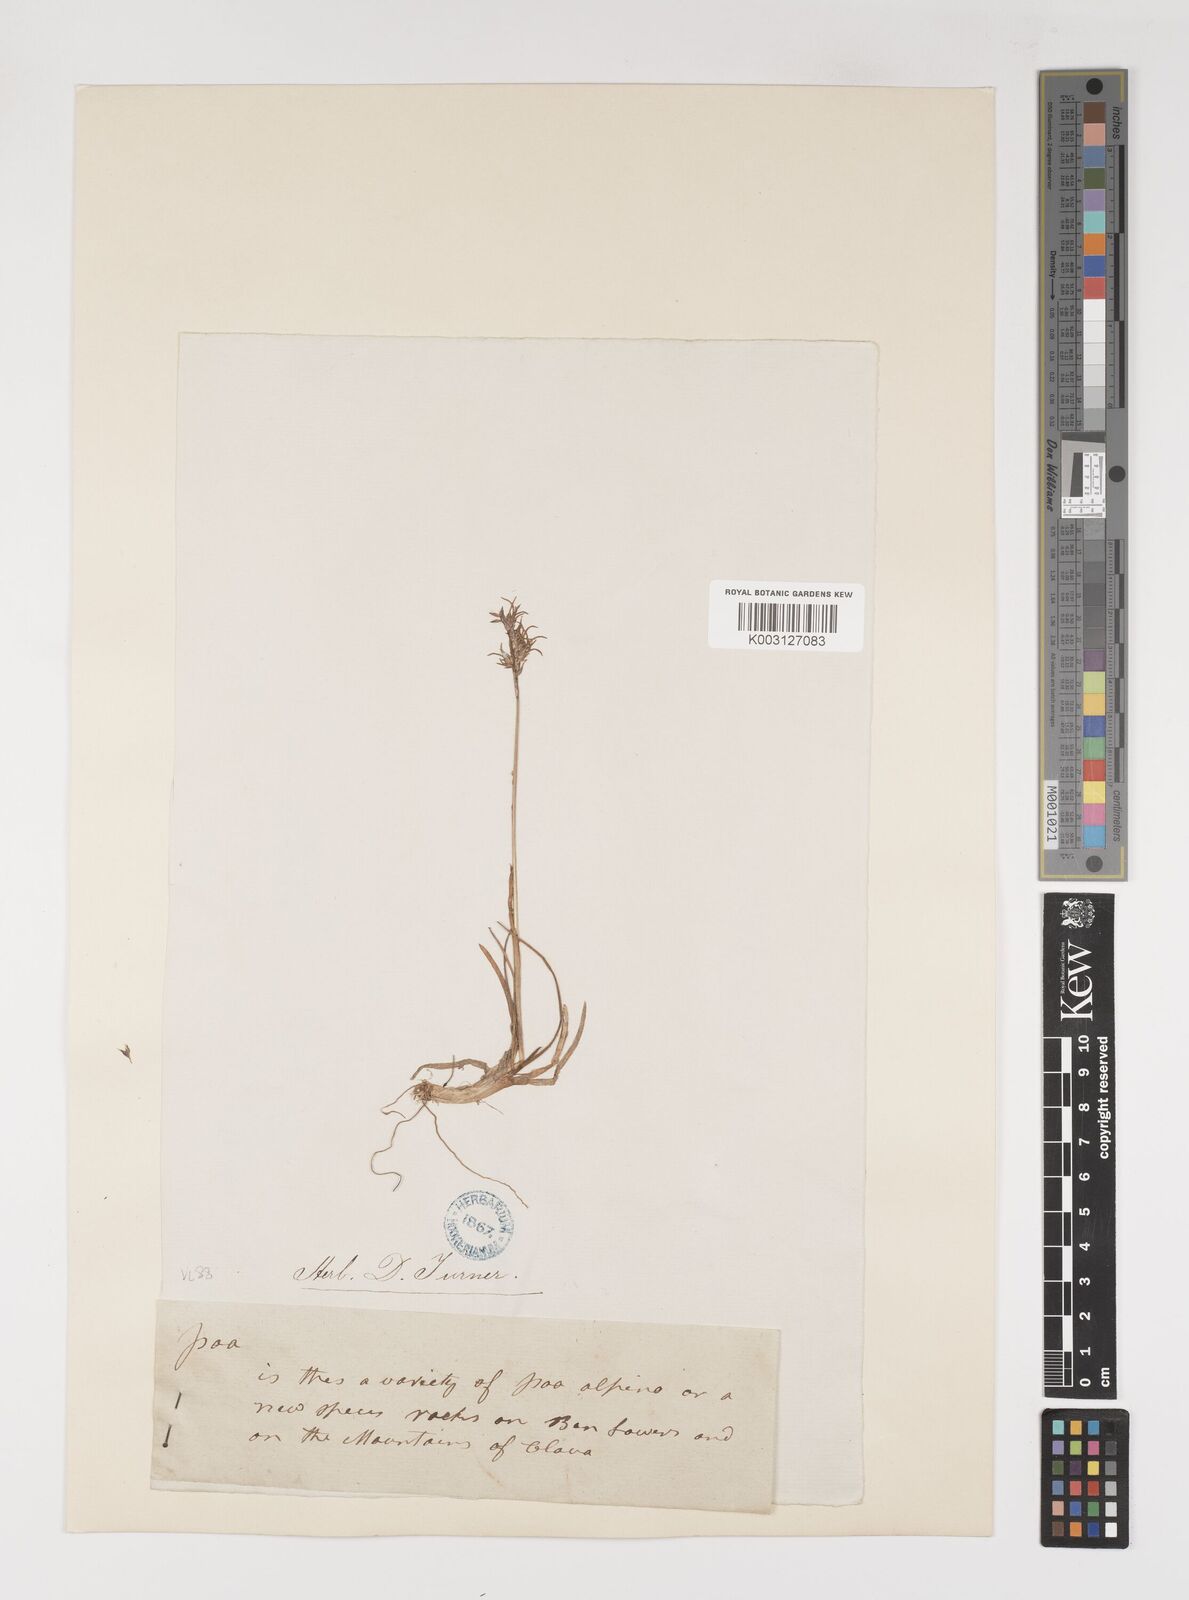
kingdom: Plantae
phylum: Tracheophyta
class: Liliopsida
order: Poales
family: Poaceae
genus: Poa
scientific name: Poa alpina
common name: Alpine bluegrass
